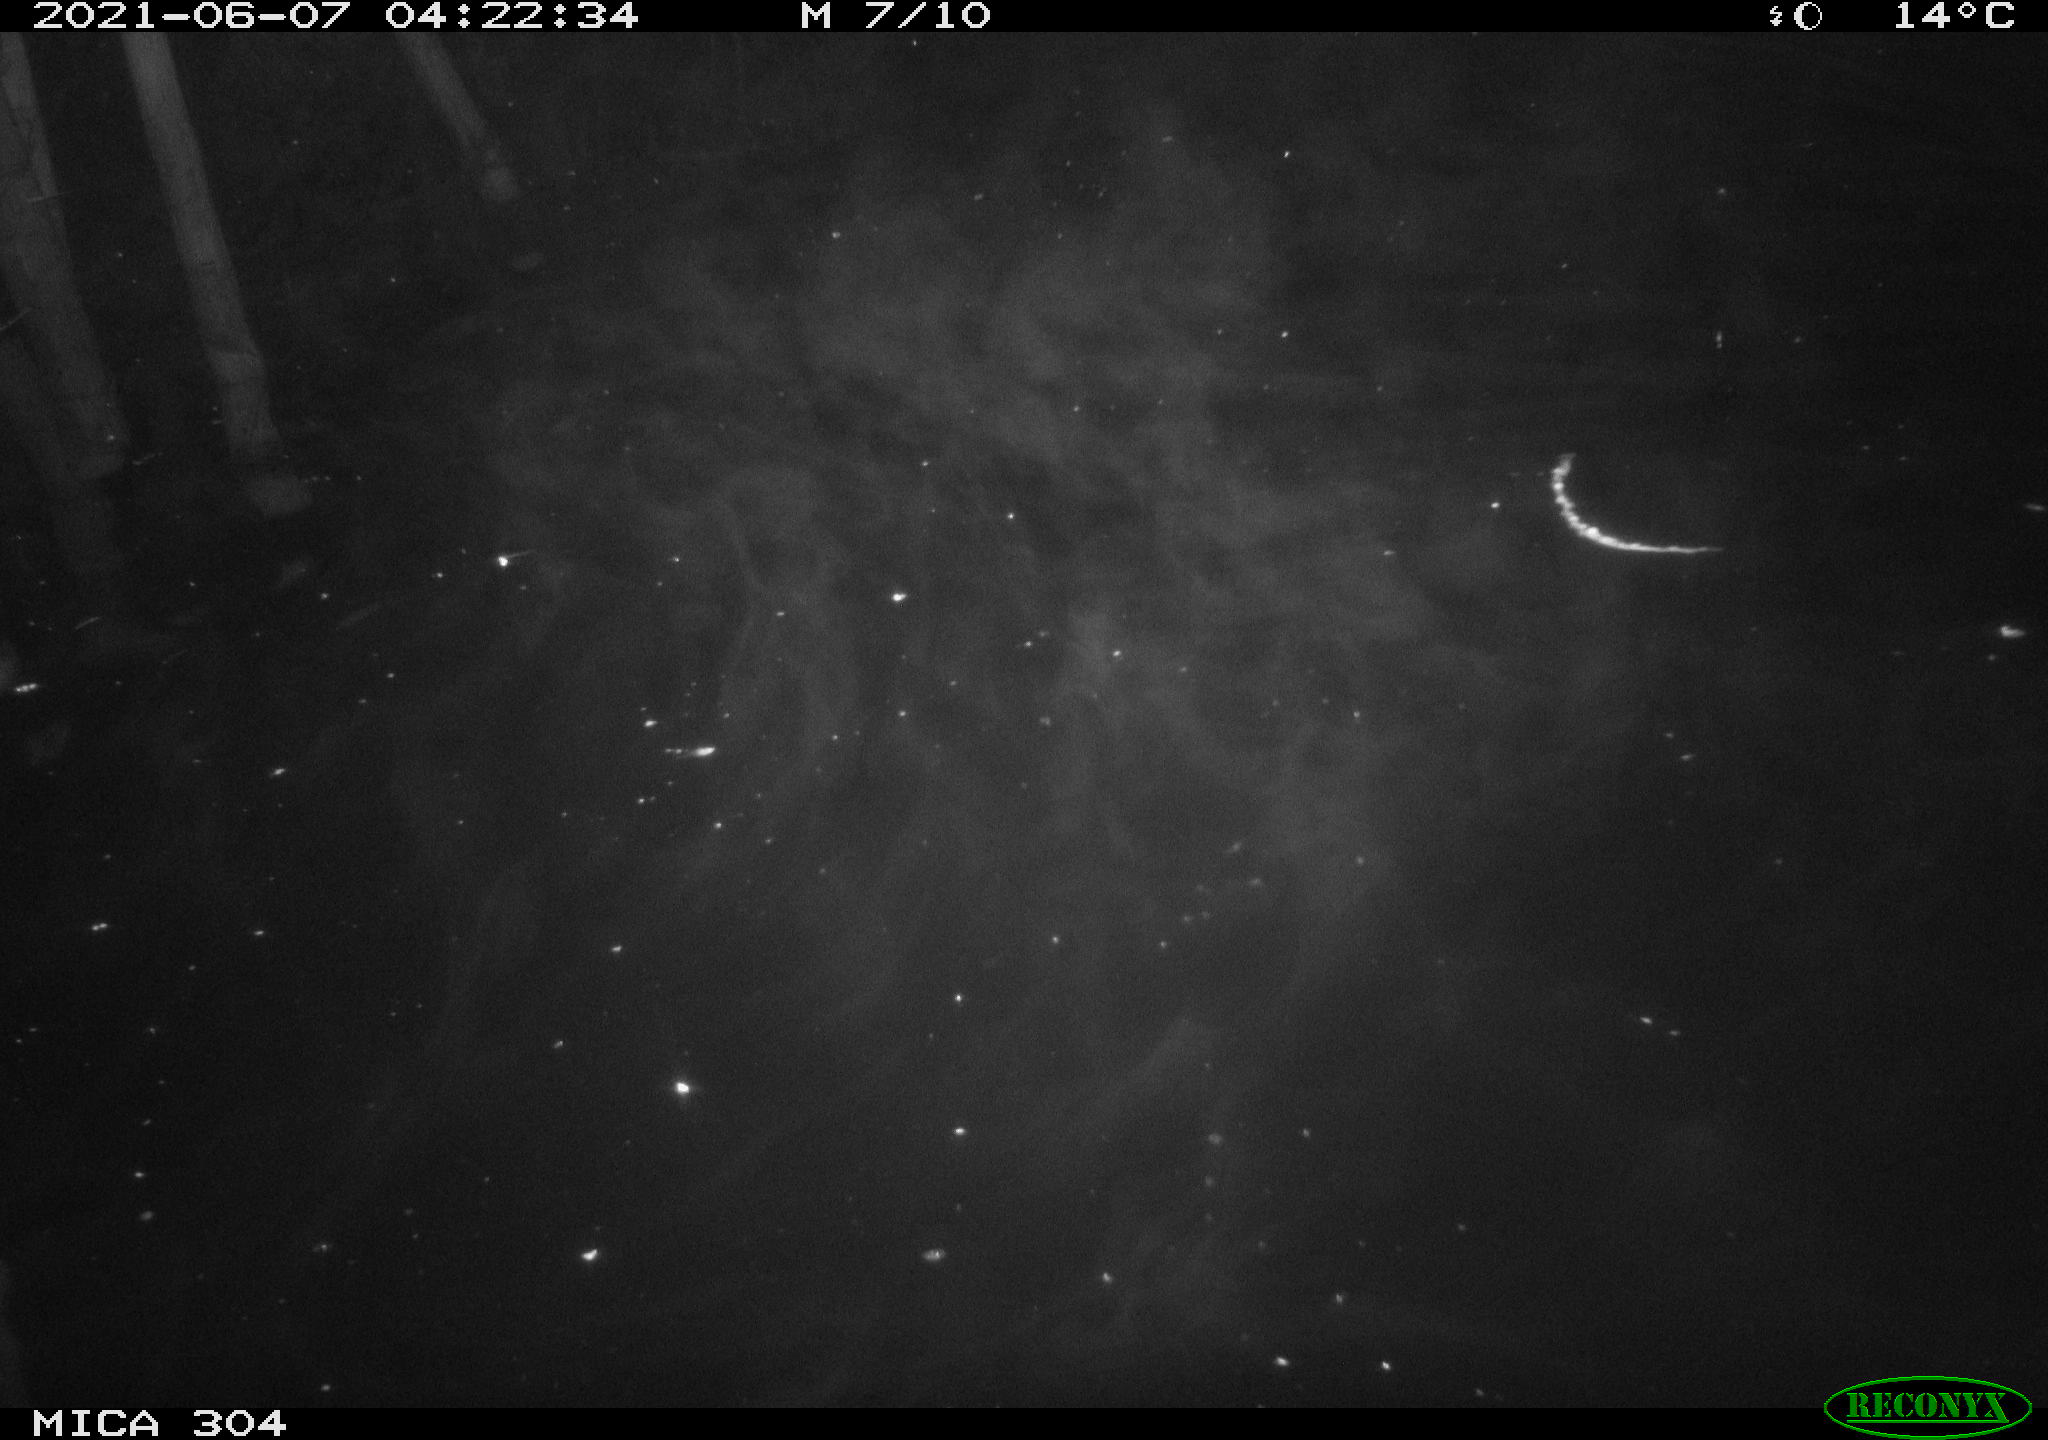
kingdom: Animalia
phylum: Chordata
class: Aves
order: Anseriformes
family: Anatidae
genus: Anas
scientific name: Anas platyrhynchos
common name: Mallard
